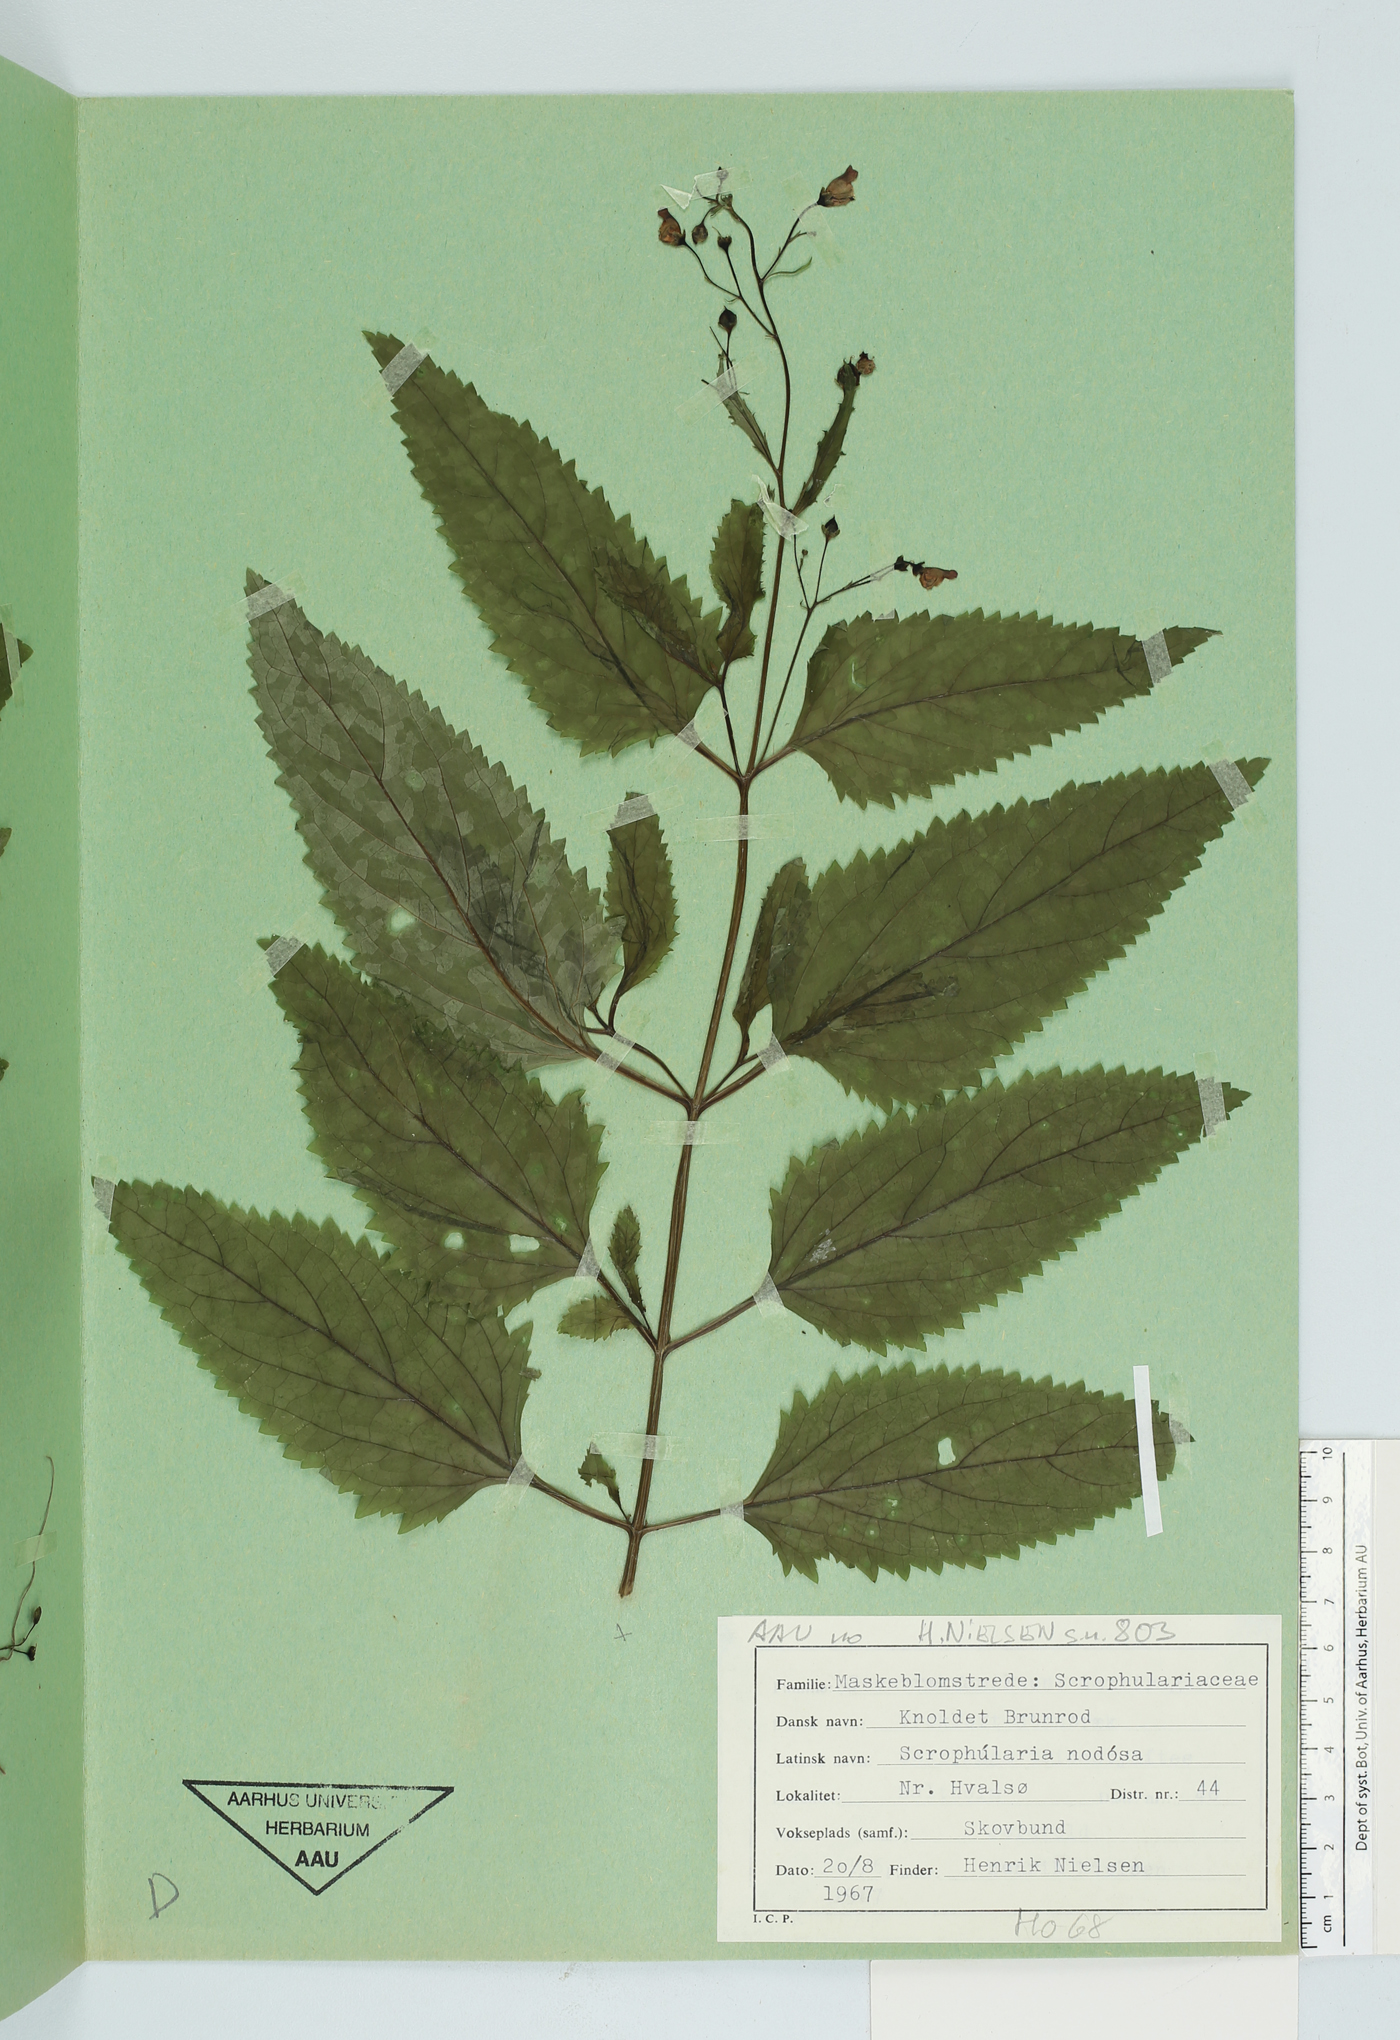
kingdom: Plantae
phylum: Tracheophyta
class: Magnoliopsida
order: Lamiales
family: Scrophulariaceae
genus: Scrophularia
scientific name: Scrophularia nodosa
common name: Common figwort
